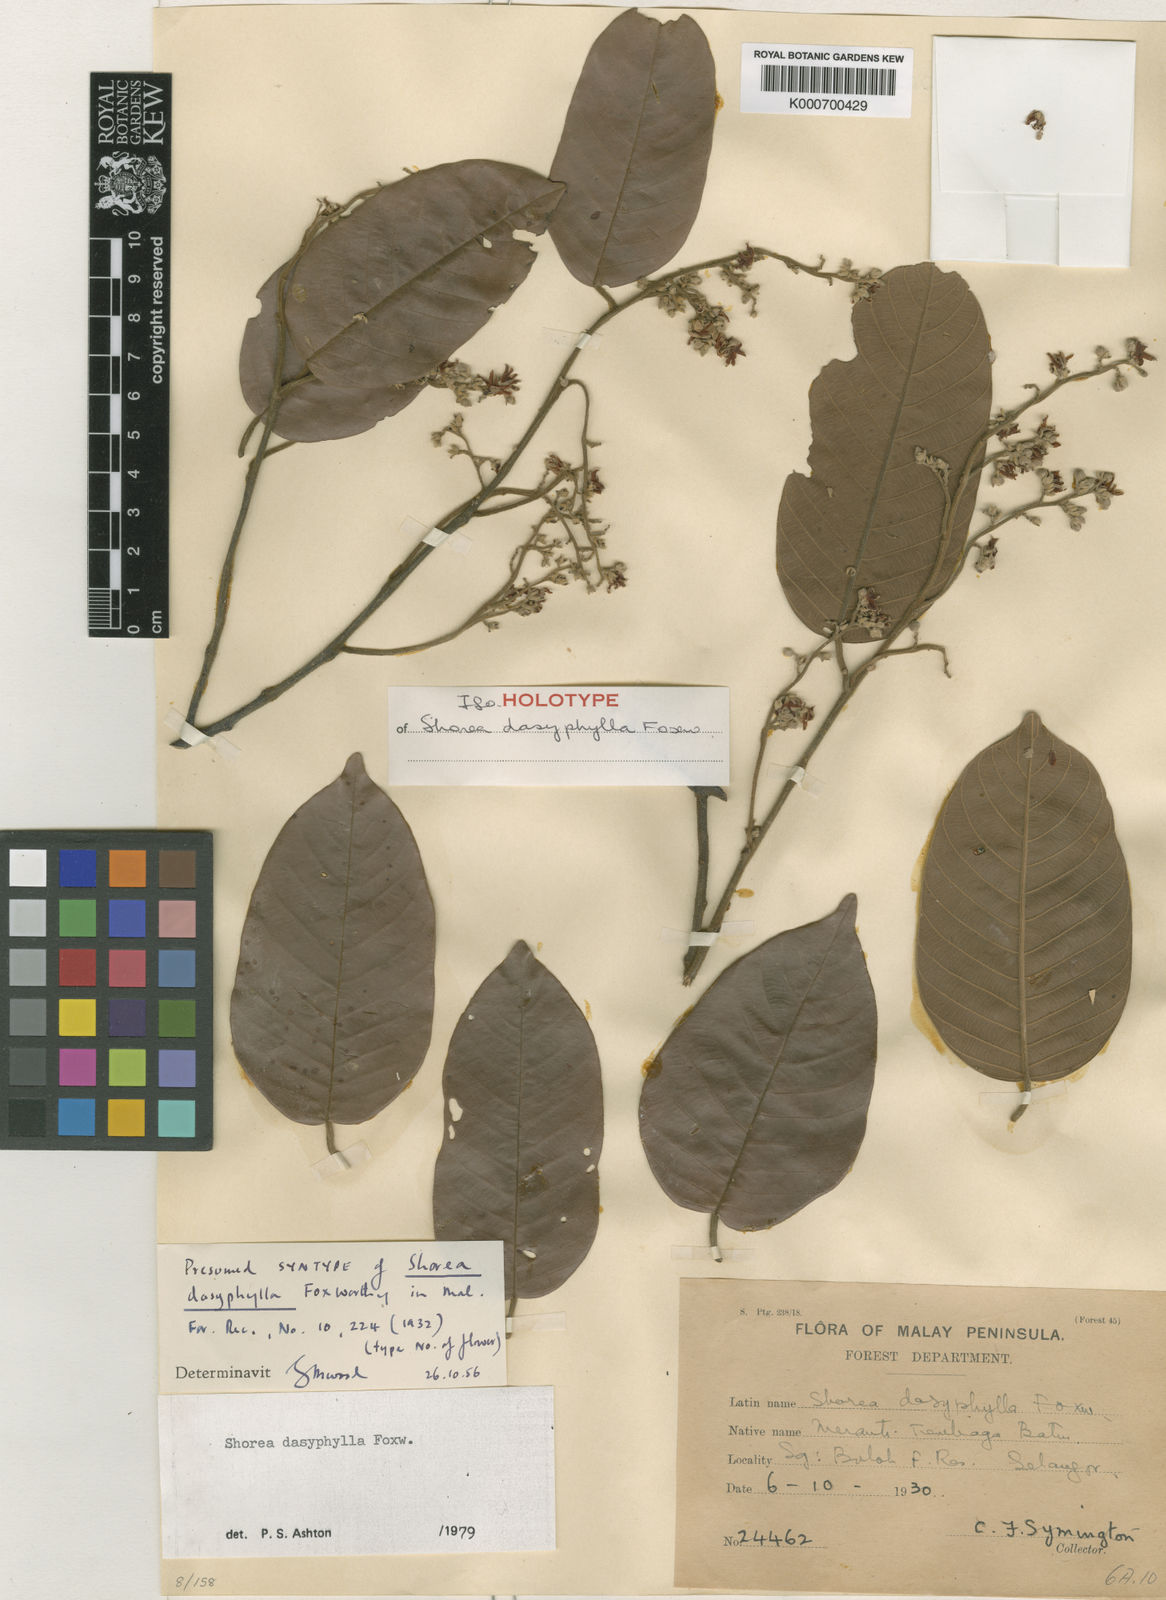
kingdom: Plantae
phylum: Tracheophyta
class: Magnoliopsida
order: Malvales
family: Dipterocarpaceae
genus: Shorea
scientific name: Shorea dasyphylla
